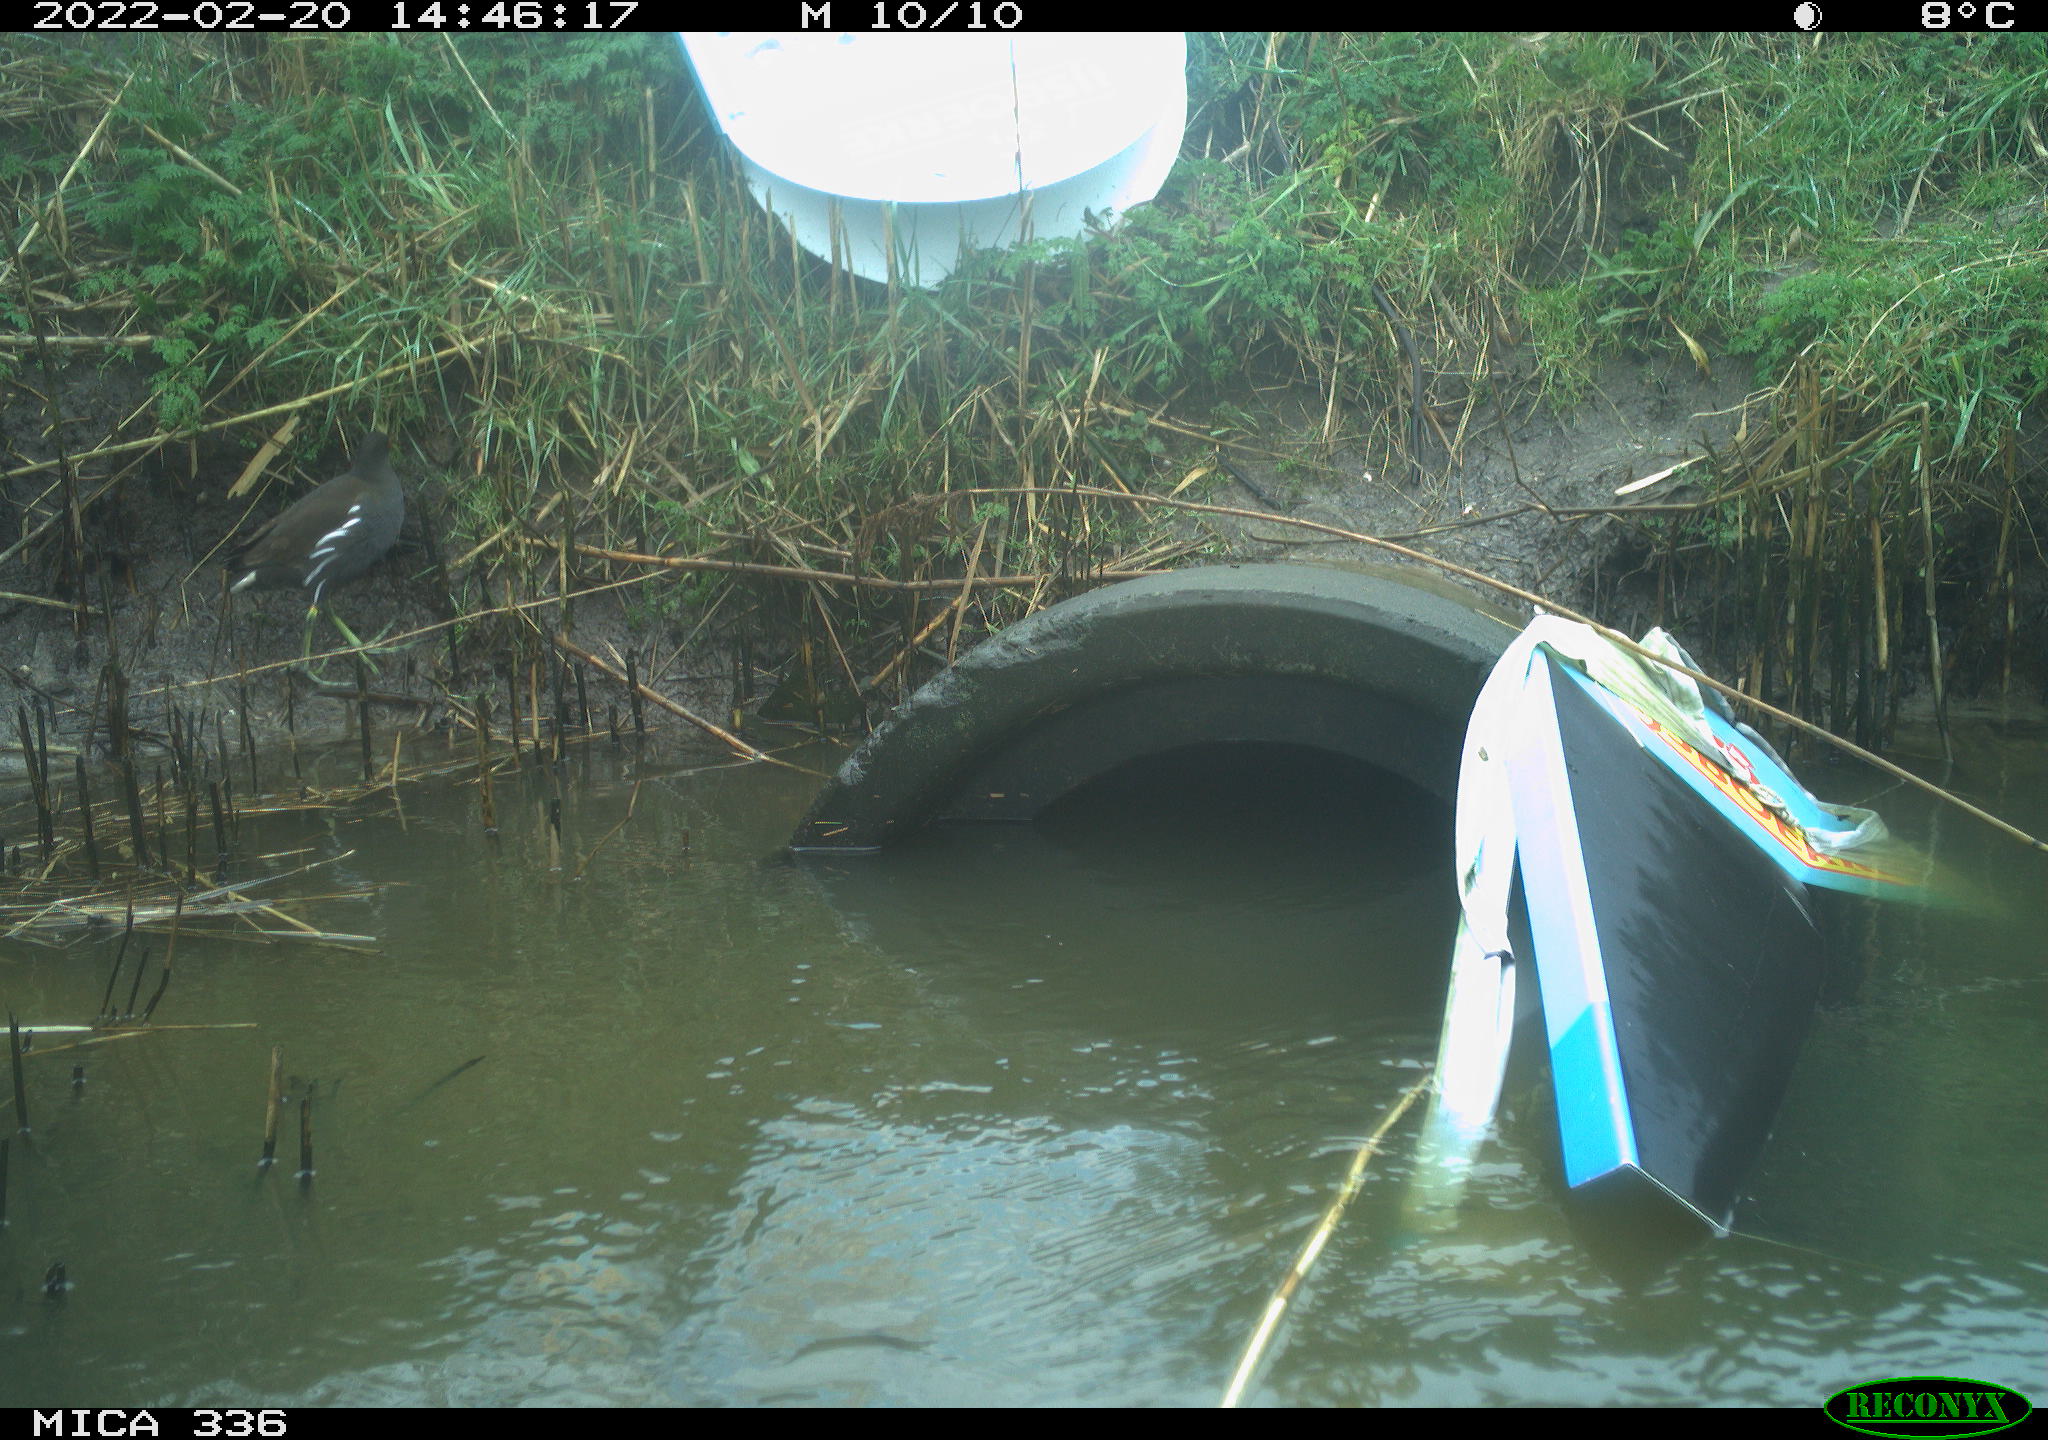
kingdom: Animalia
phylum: Chordata
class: Aves
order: Gruiformes
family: Rallidae
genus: Gallinula
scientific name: Gallinula chloropus
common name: Common moorhen
